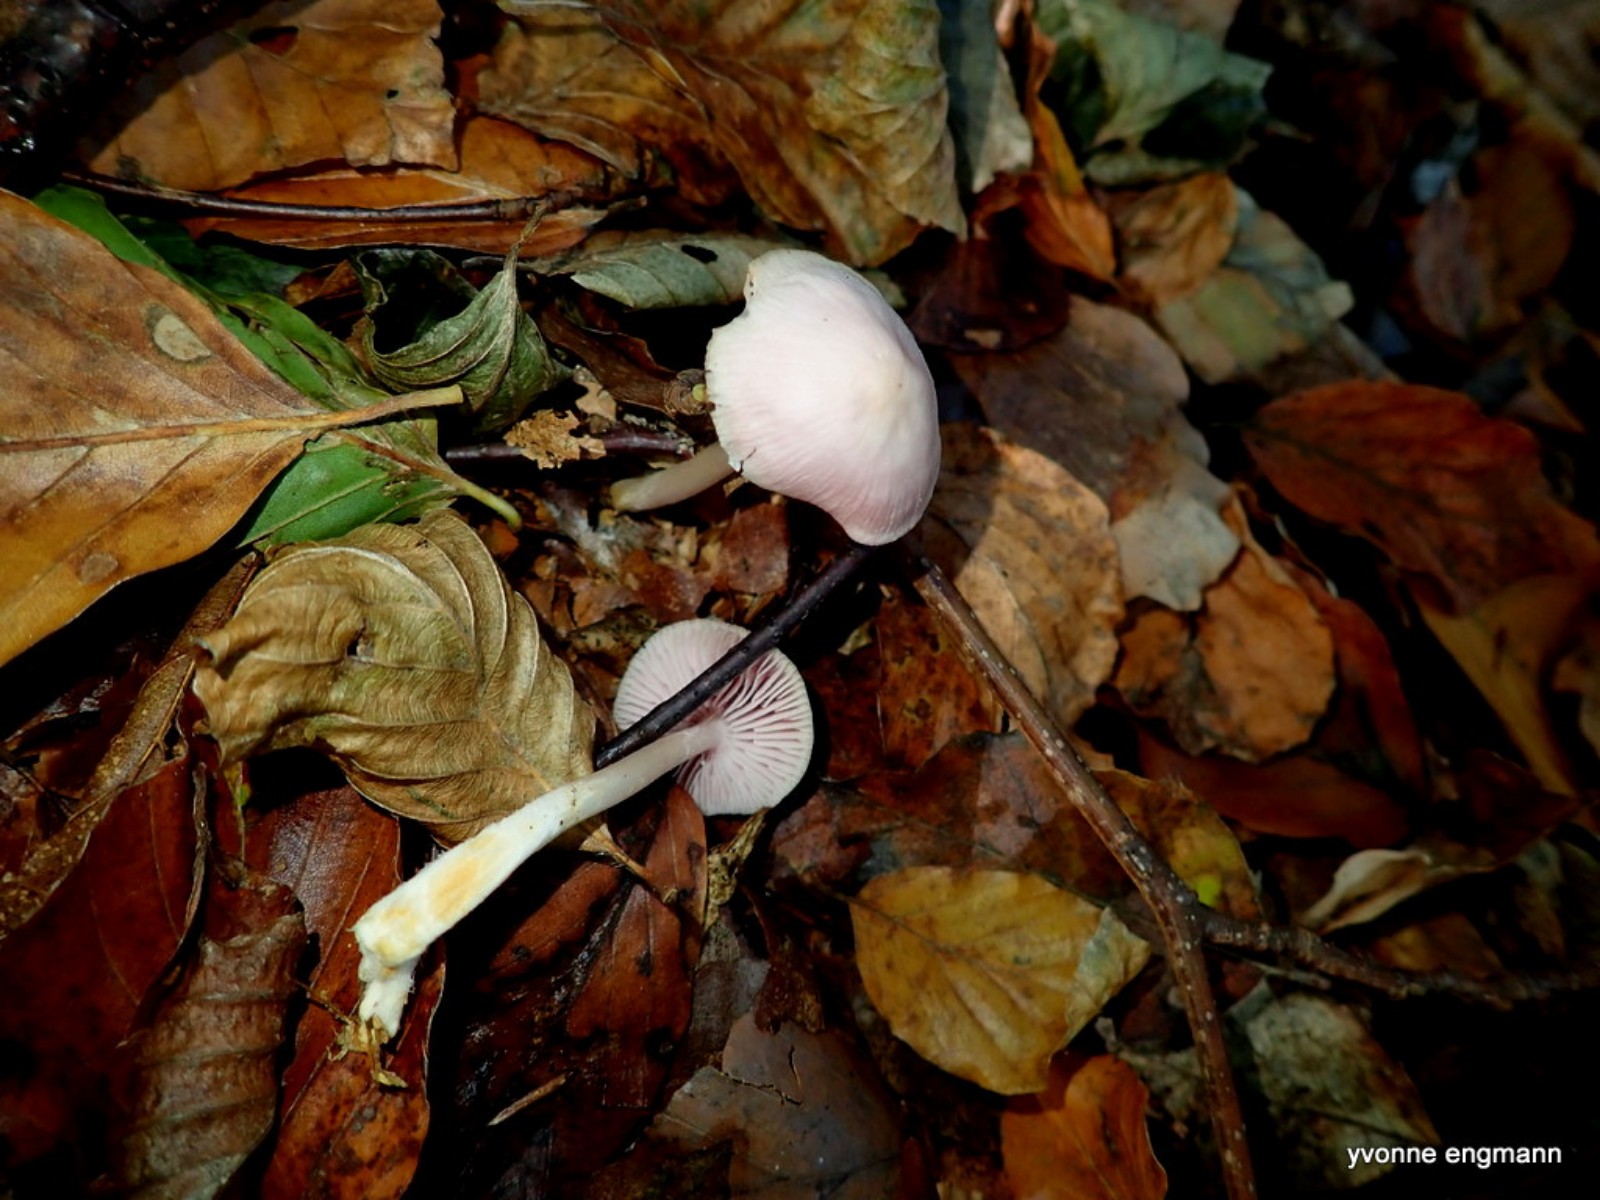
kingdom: Fungi
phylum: Basidiomycota
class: Agaricomycetes
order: Agaricales
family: Mycenaceae
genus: Mycena
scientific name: Mycena rosea
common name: rosa huesvamp
